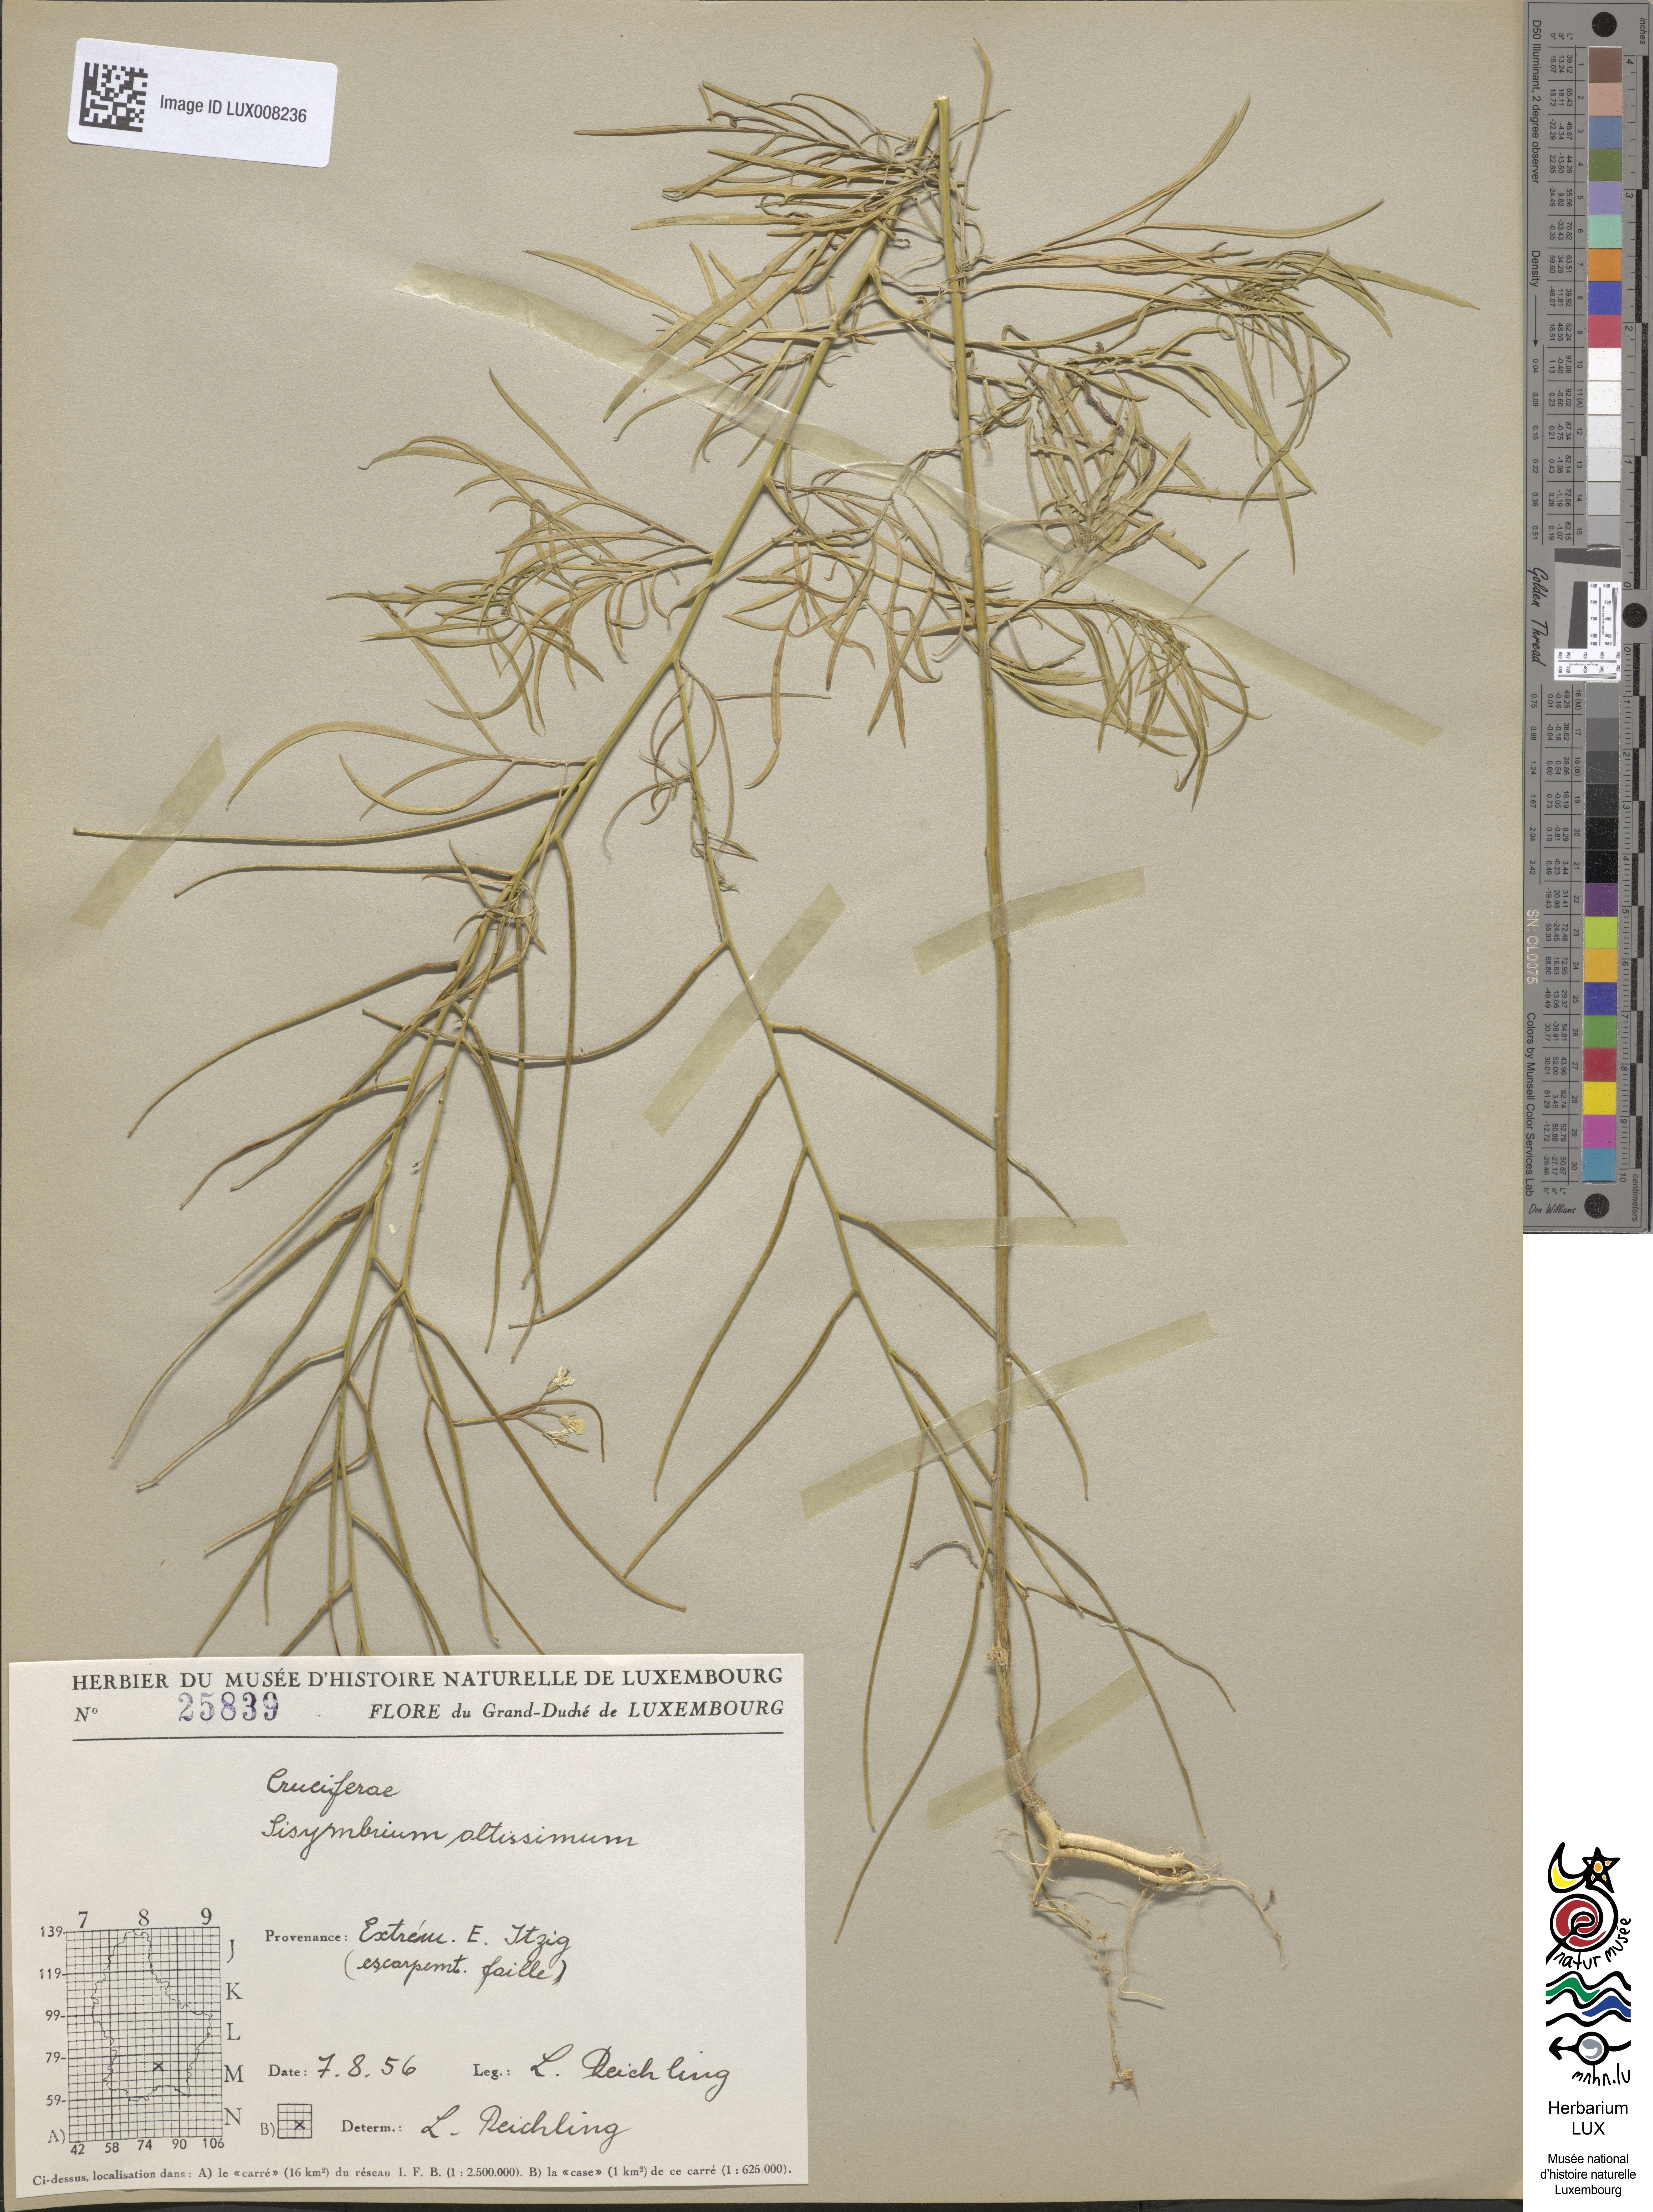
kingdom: Plantae
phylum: Tracheophyta
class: Magnoliopsida
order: Brassicales
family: Brassicaceae
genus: Sisymbrium
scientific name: Sisymbrium altissimum
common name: Tall rocket
